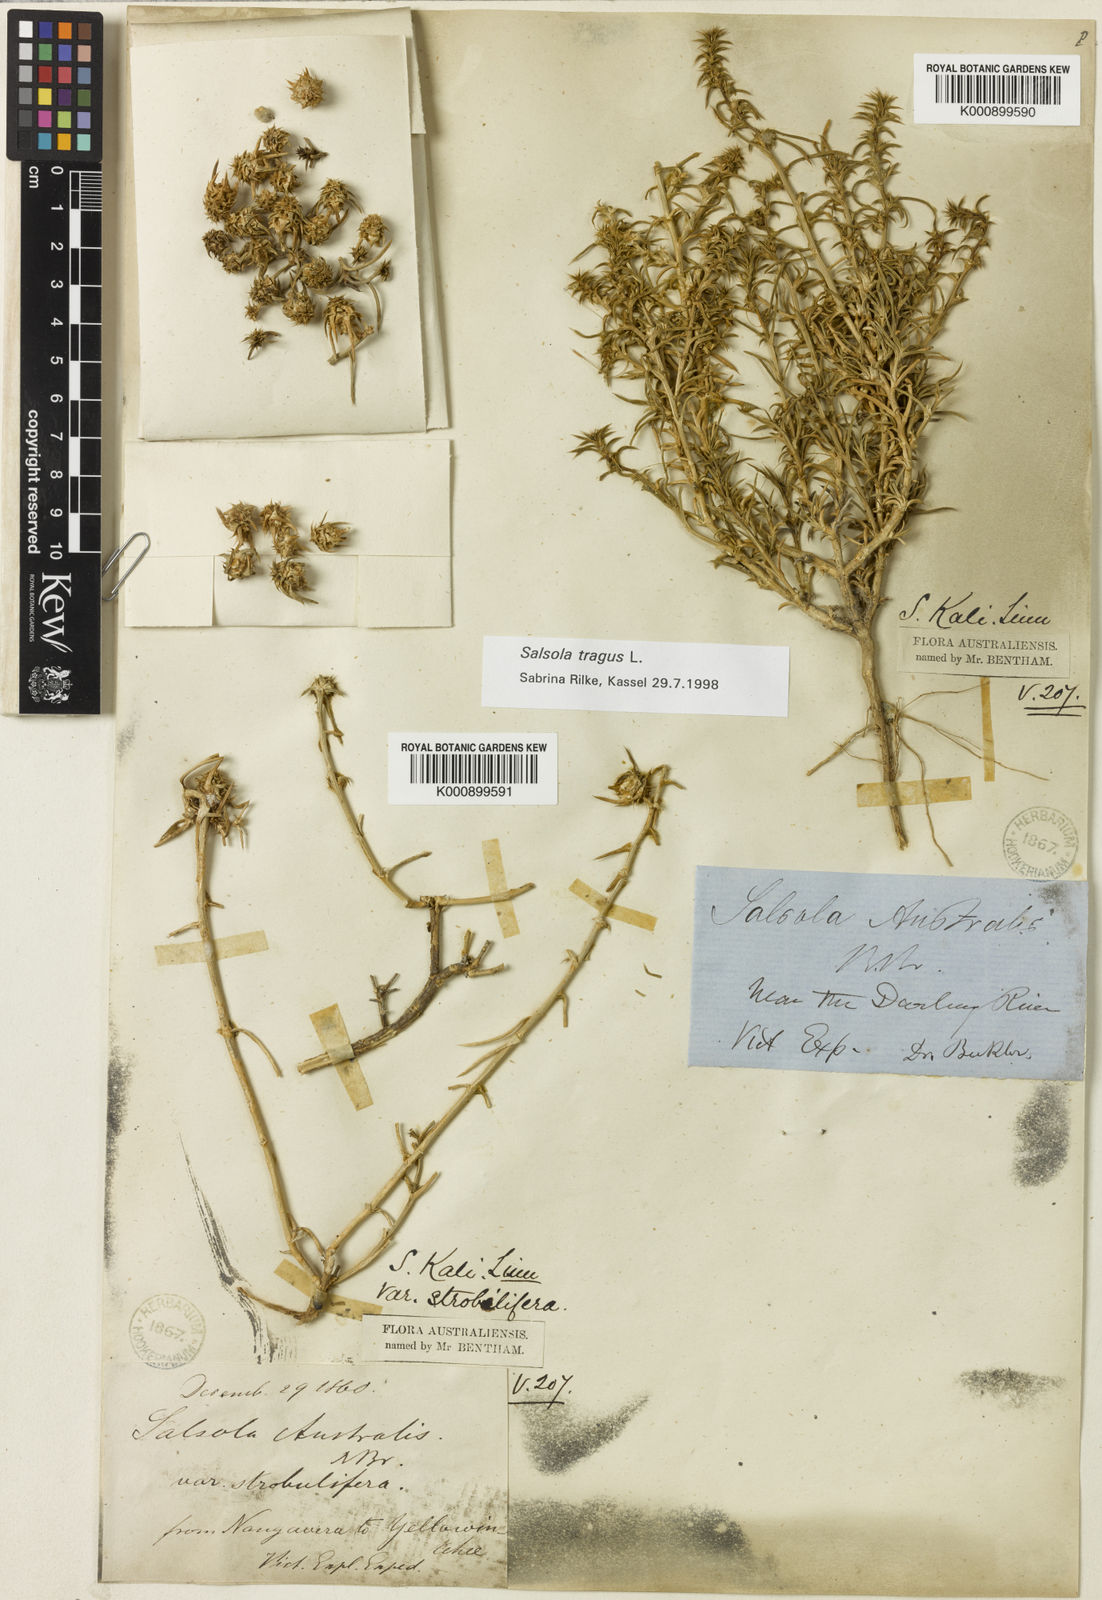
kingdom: Plantae
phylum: Tracheophyta
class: Magnoliopsida
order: Caryophyllales
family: Amaranthaceae
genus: Salsola
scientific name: Salsola kali
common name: Saltwort
